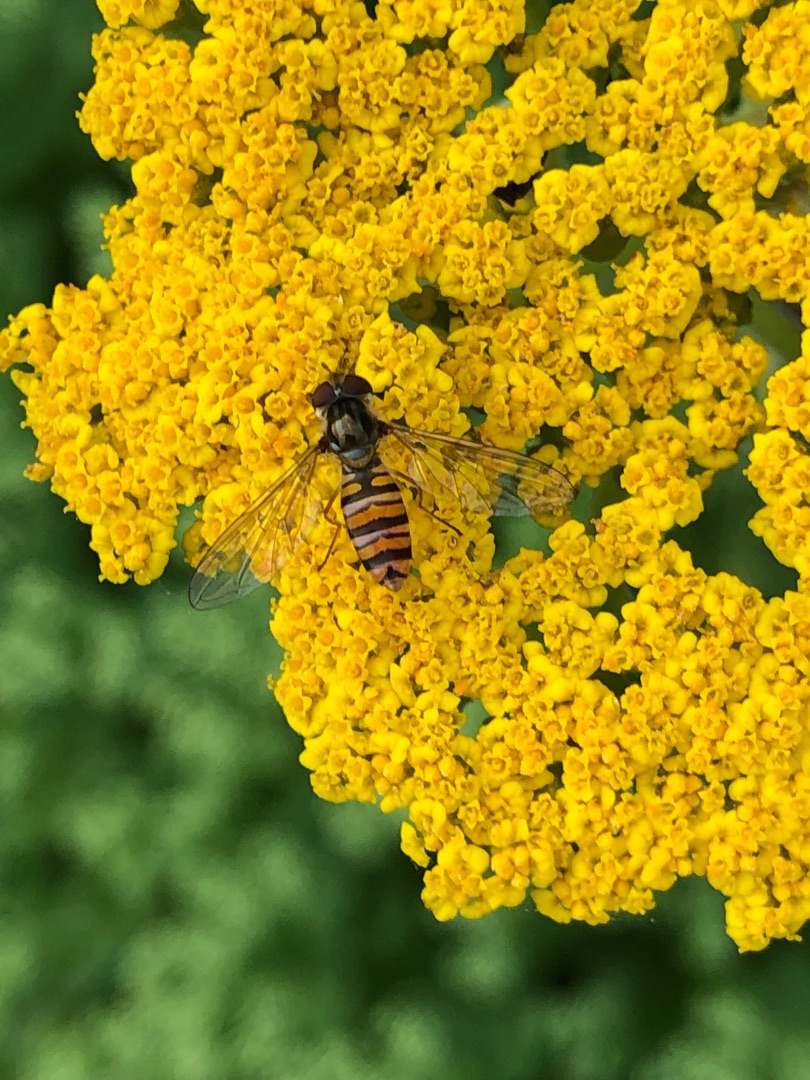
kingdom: Animalia
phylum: Arthropoda
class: Insecta
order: Diptera
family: Syrphidae
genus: Episyrphus
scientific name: Episyrphus balteatus
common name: Dobbeltbåndet svirreflue
